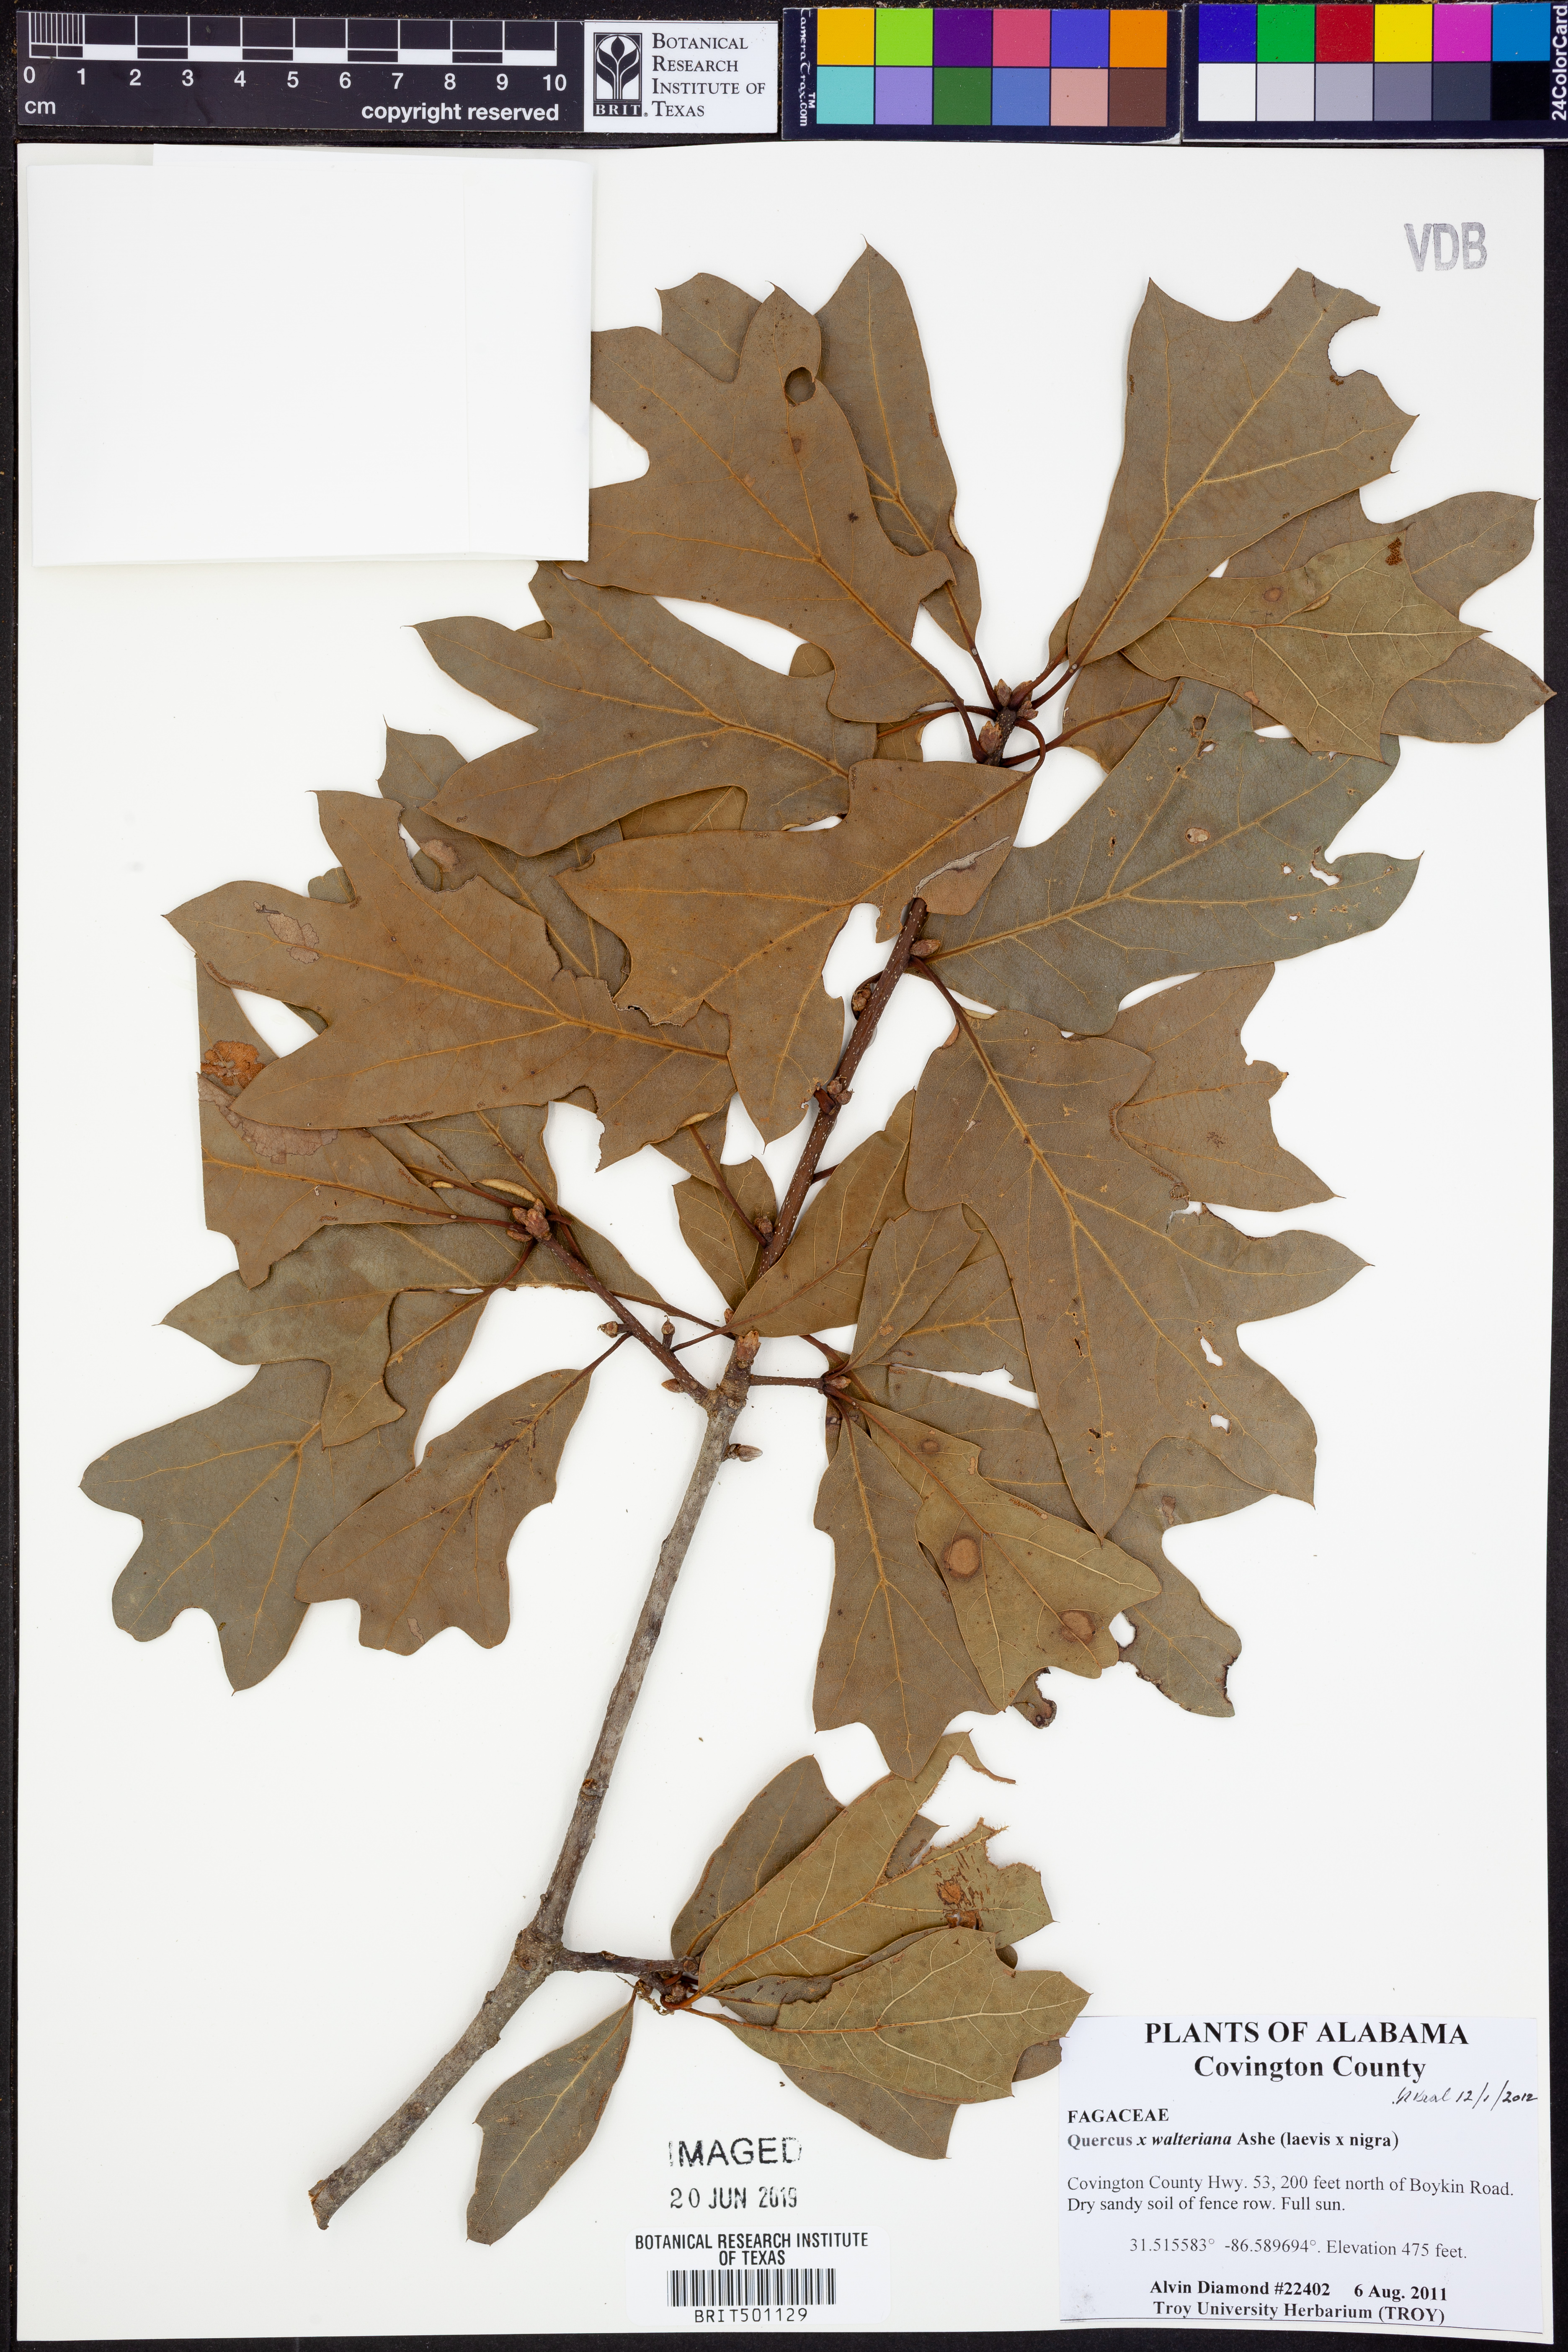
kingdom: Plantae
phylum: Tracheophyta
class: Magnoliopsida
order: Fagales
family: Fagaceae
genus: Quercus
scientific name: Quercus
